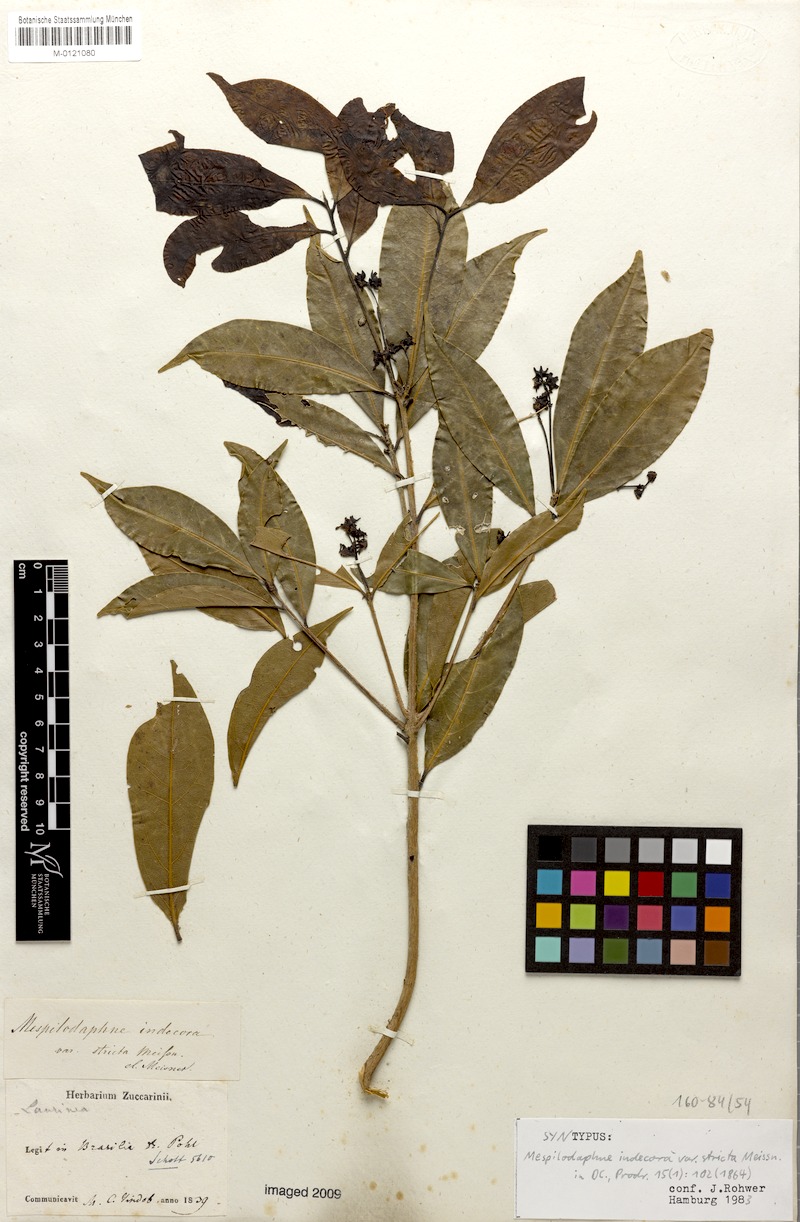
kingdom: Plantae
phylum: Tracheophyta
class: Magnoliopsida
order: Laurales
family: Lauraceae
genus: Mespilodaphne
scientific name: Mespilodaphne indecora
